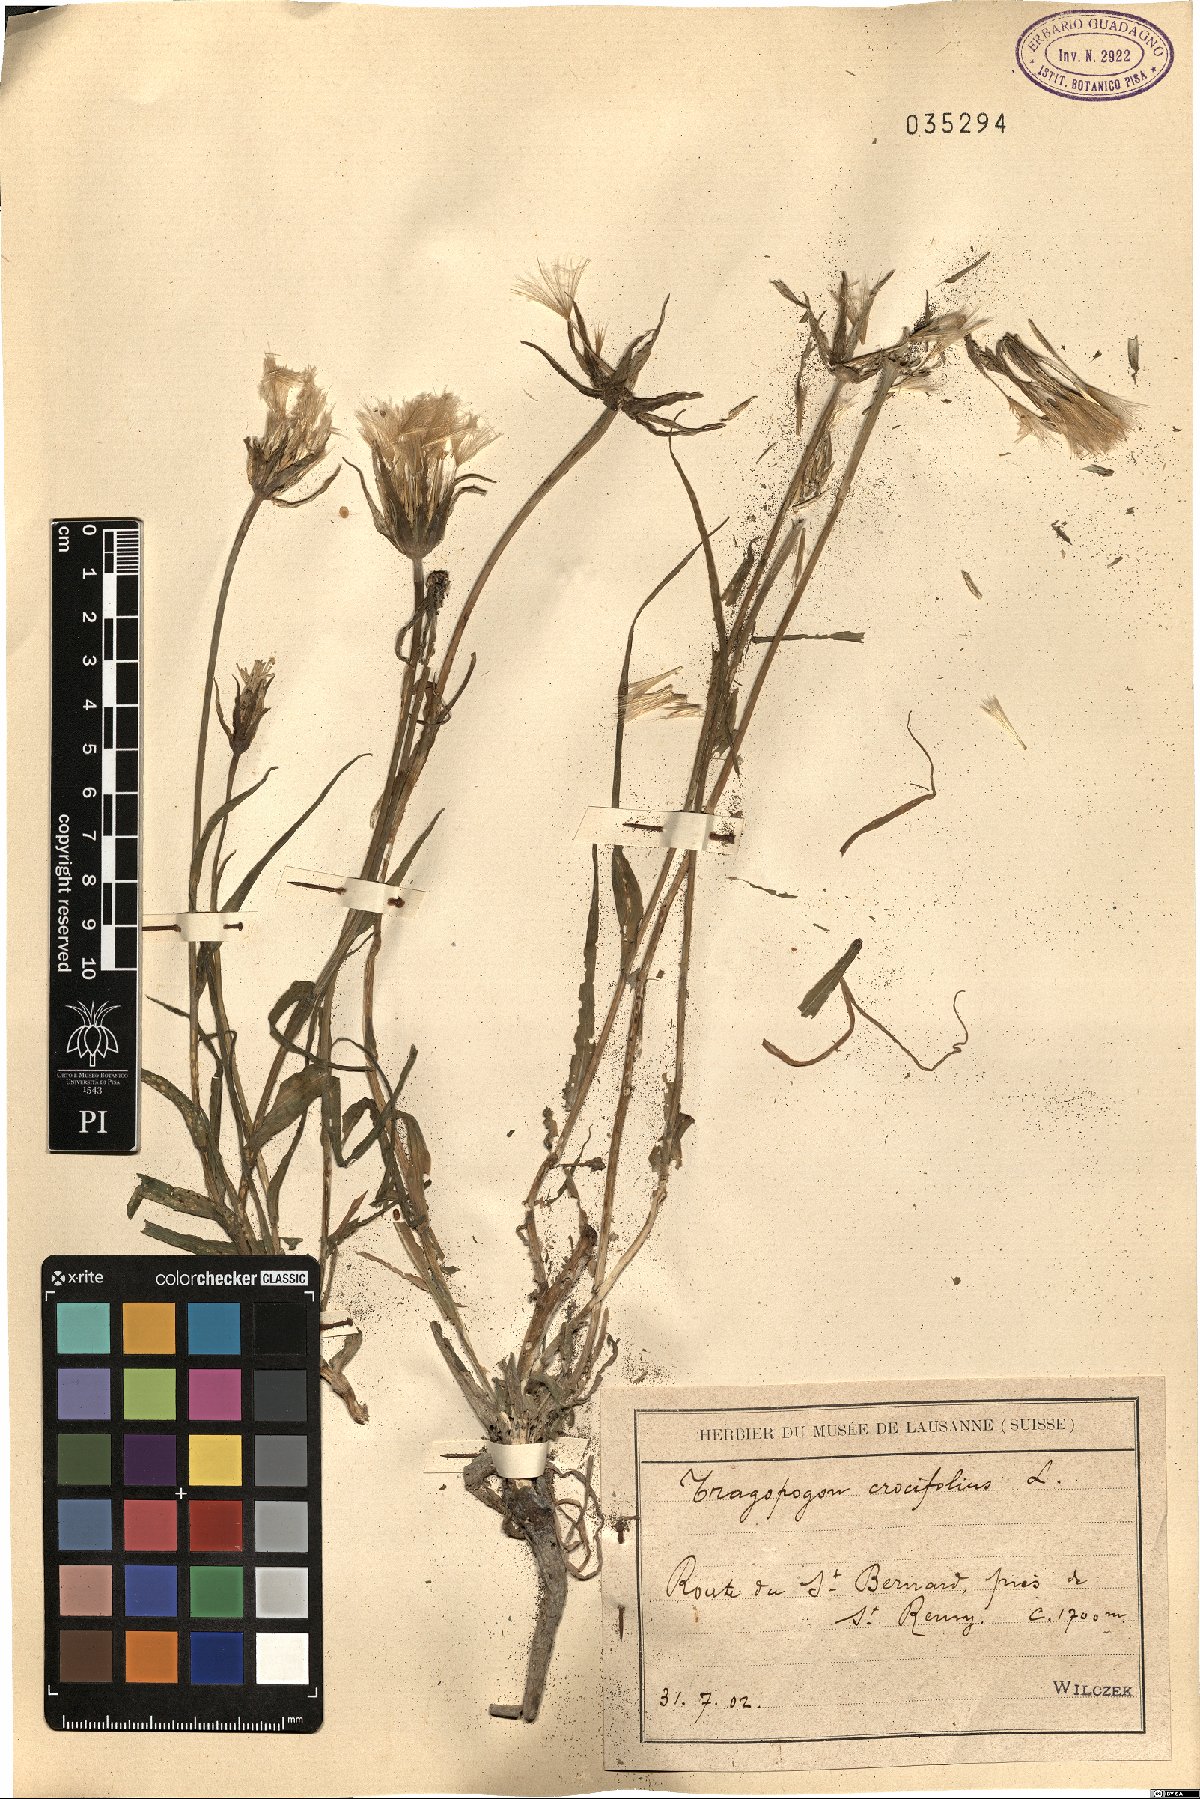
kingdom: Plantae
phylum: Tracheophyta
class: Magnoliopsida
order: Asterales
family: Asteraceae
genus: Tragopogon
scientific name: Tragopogon crocifolius
